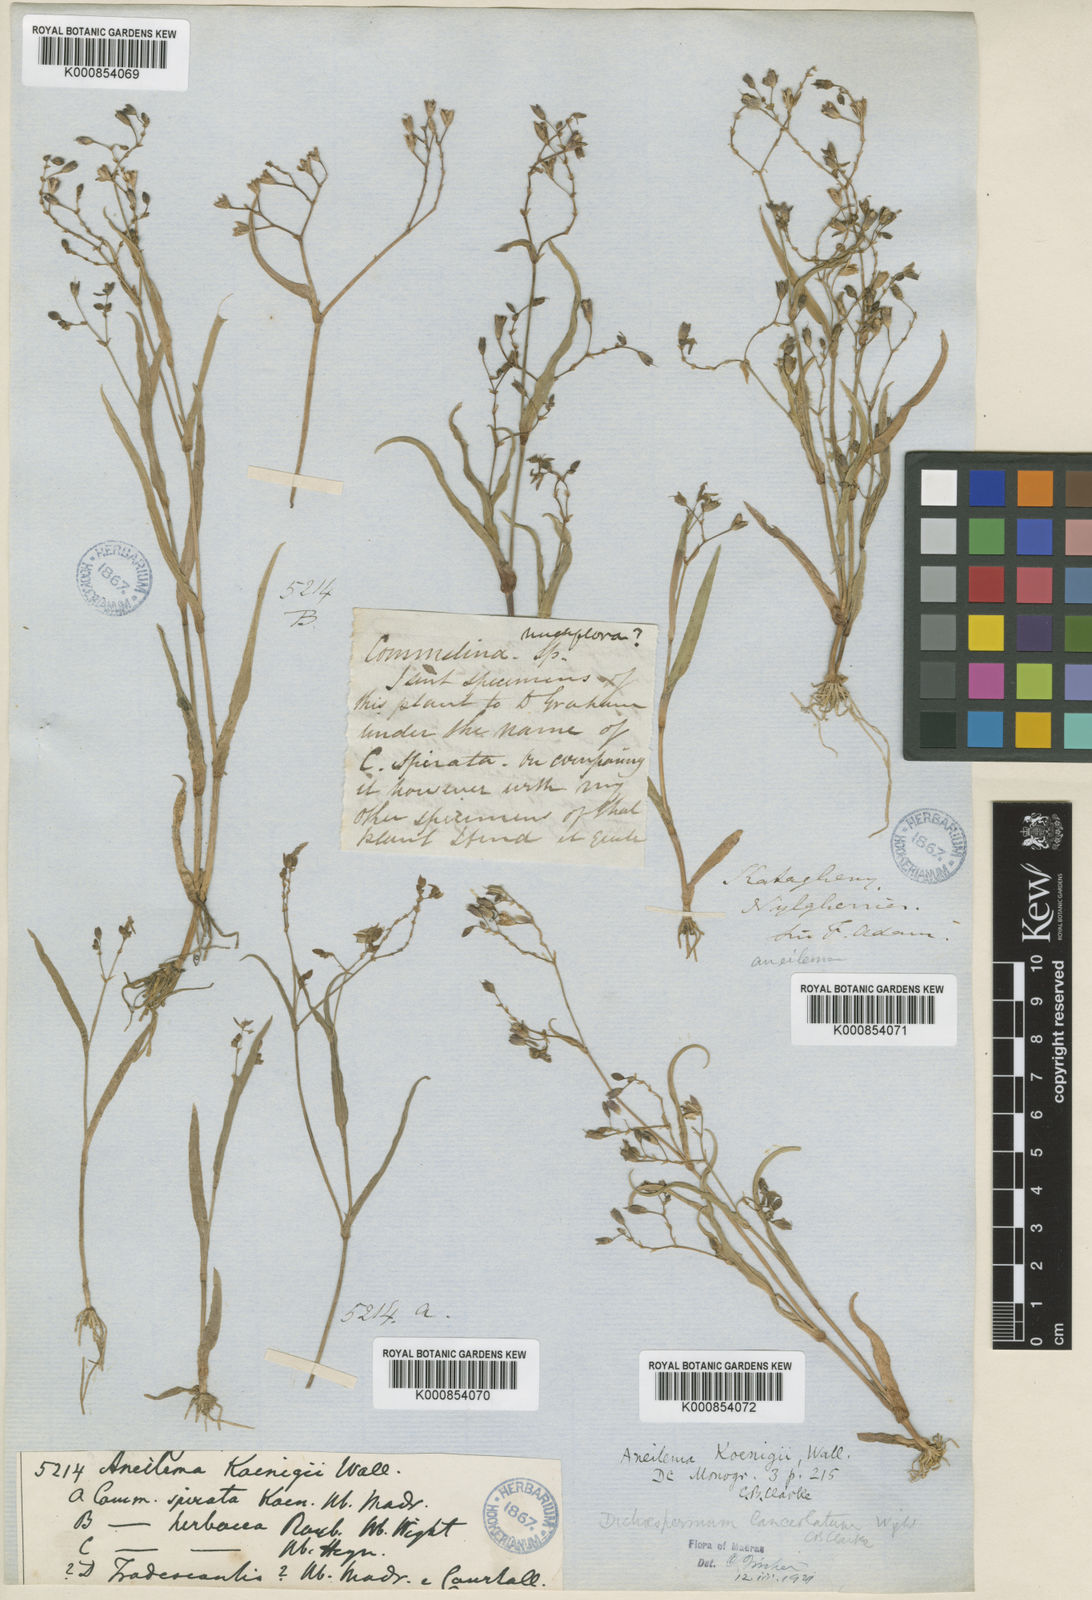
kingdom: Plantae
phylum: Tracheophyta
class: Liliopsida
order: Commelinales
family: Commelinaceae
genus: Murdannia
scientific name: Murdannia
